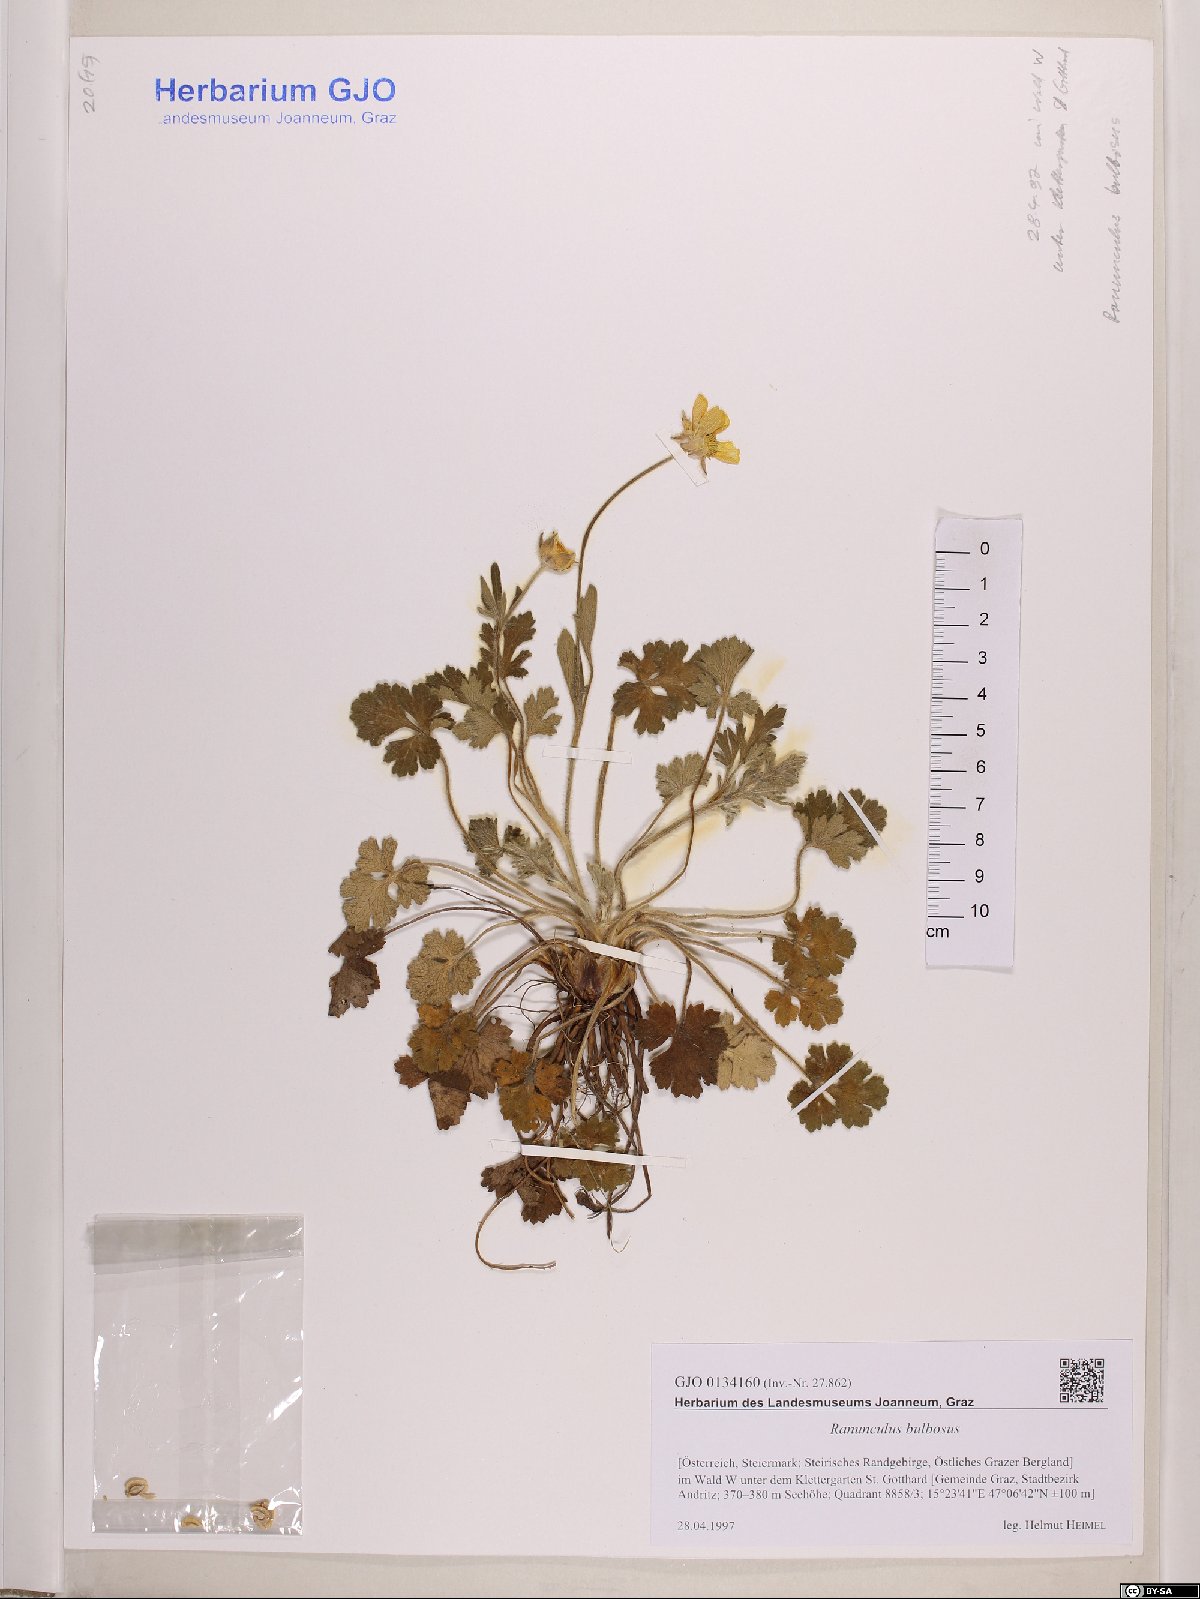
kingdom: Plantae
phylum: Tracheophyta
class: Magnoliopsida
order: Ranunculales
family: Ranunculaceae
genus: Ranunculus
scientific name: Ranunculus bulbosus
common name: Bulbous buttercup
